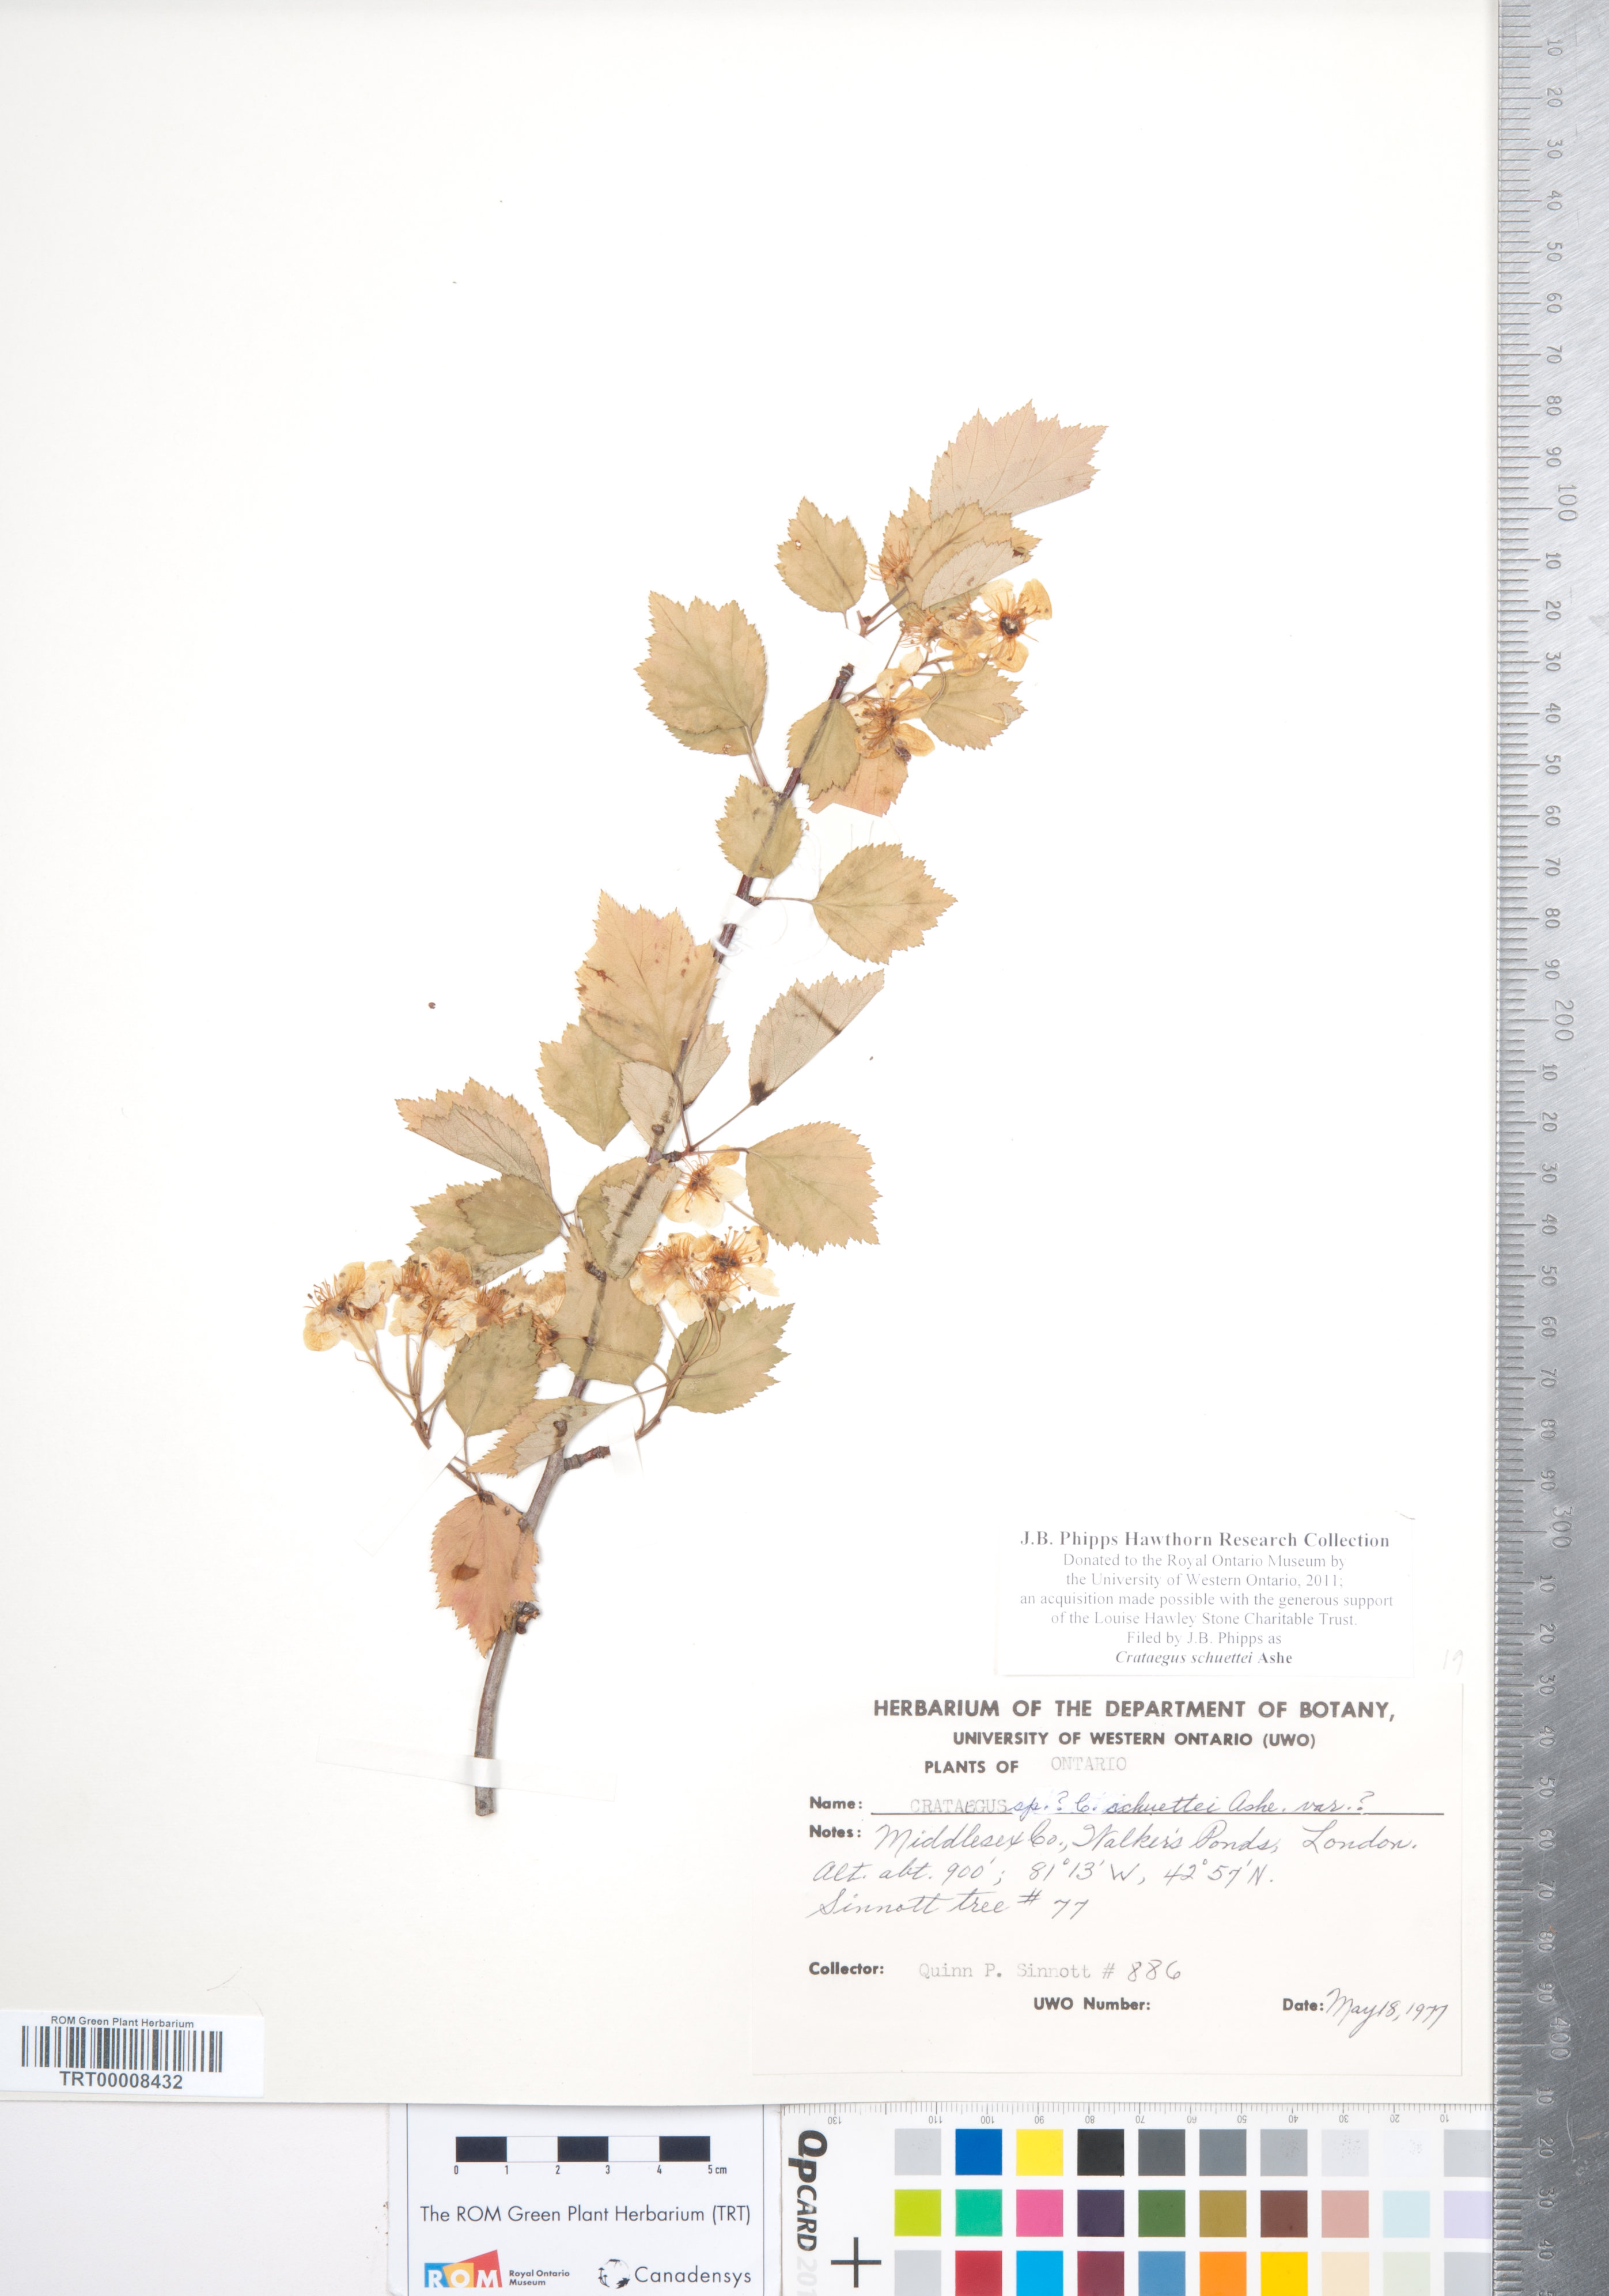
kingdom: Plantae
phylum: Tracheophyta
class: Magnoliopsida
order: Rosales
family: Rosaceae
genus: Crataegus
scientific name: Crataegus schuettei
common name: Schuette's hawthorn
